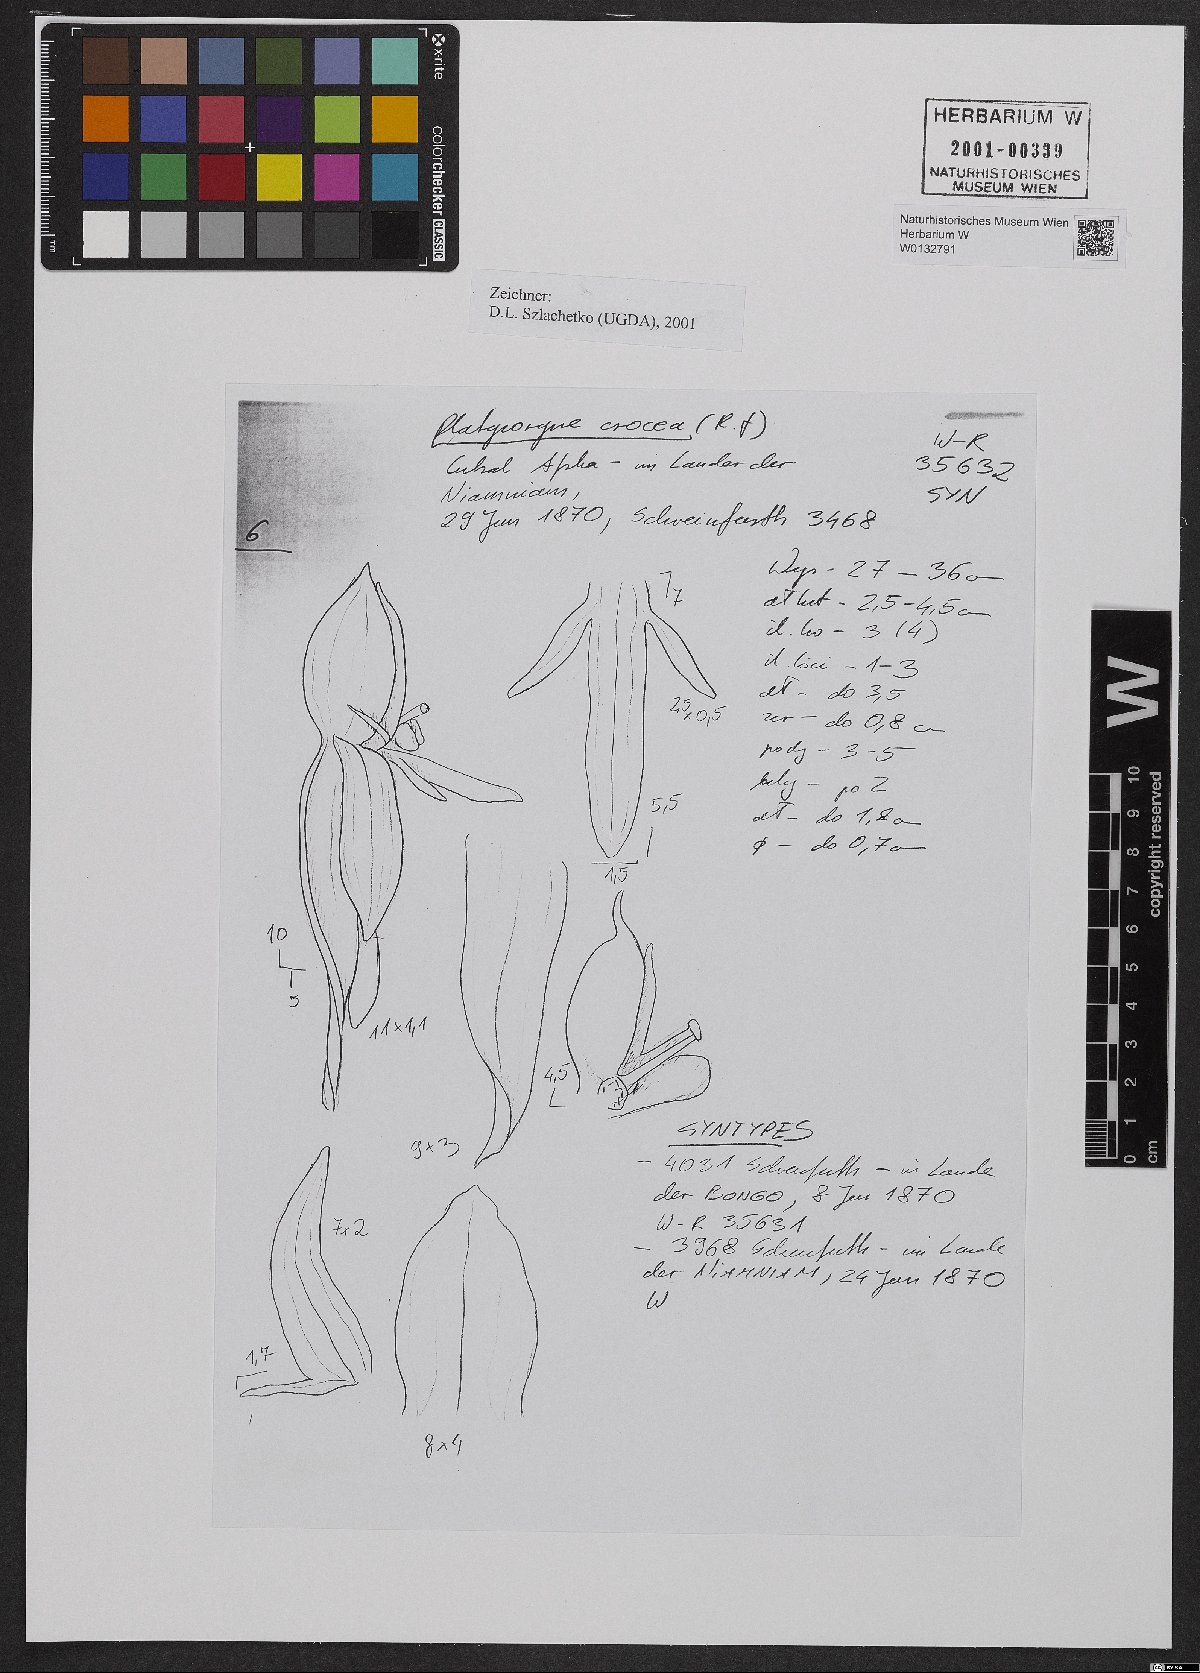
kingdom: Plantae
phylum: Tracheophyta
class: Liliopsida
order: Asparagales
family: Orchidaceae
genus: Platycoryne
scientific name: Platycoryne crocea
